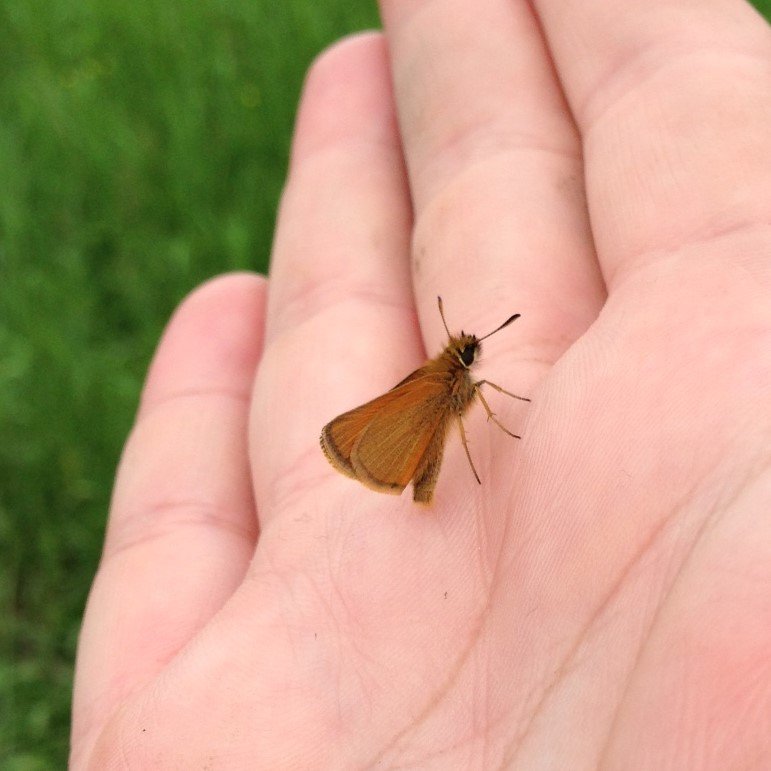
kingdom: Animalia
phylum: Arthropoda
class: Insecta
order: Lepidoptera
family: Hesperiidae
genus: Thymelicus
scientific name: Thymelicus lineola
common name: European Skipper
